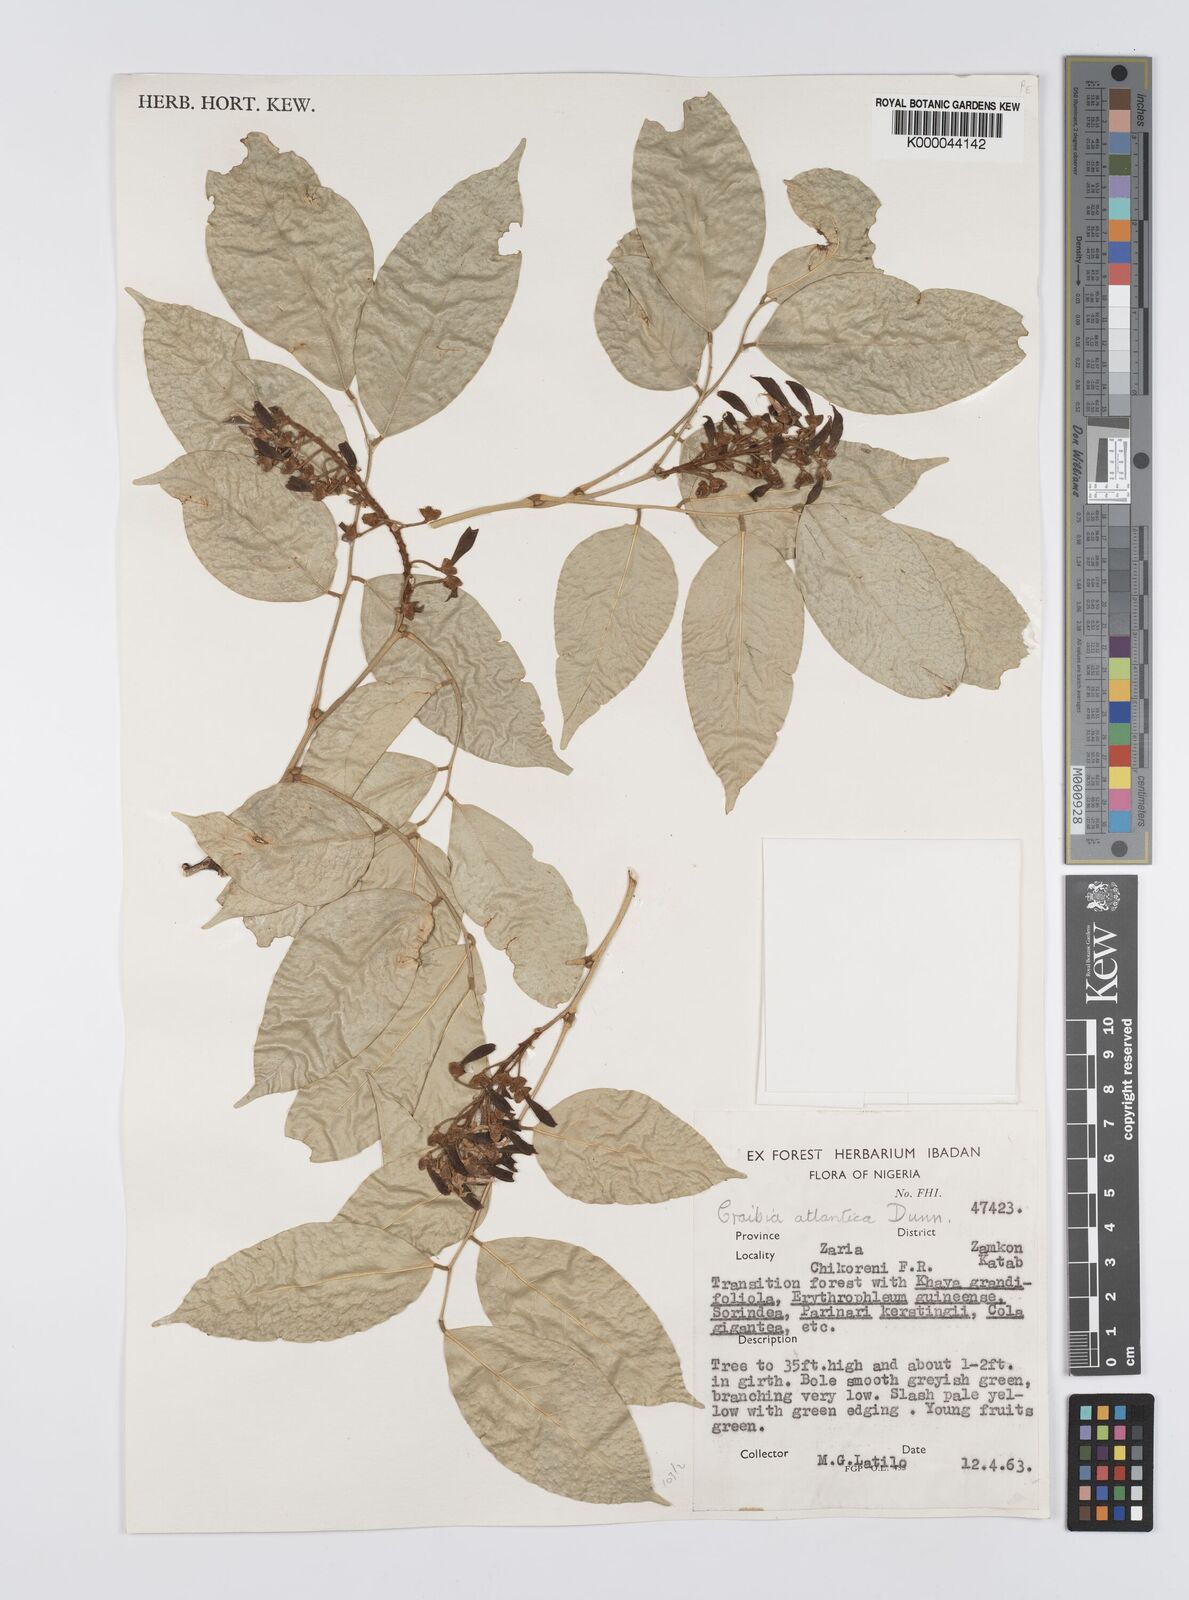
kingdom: Plantae
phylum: Tracheophyta
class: Magnoliopsida
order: Fabales
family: Fabaceae
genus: Craibia
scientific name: Craibia atlantica
